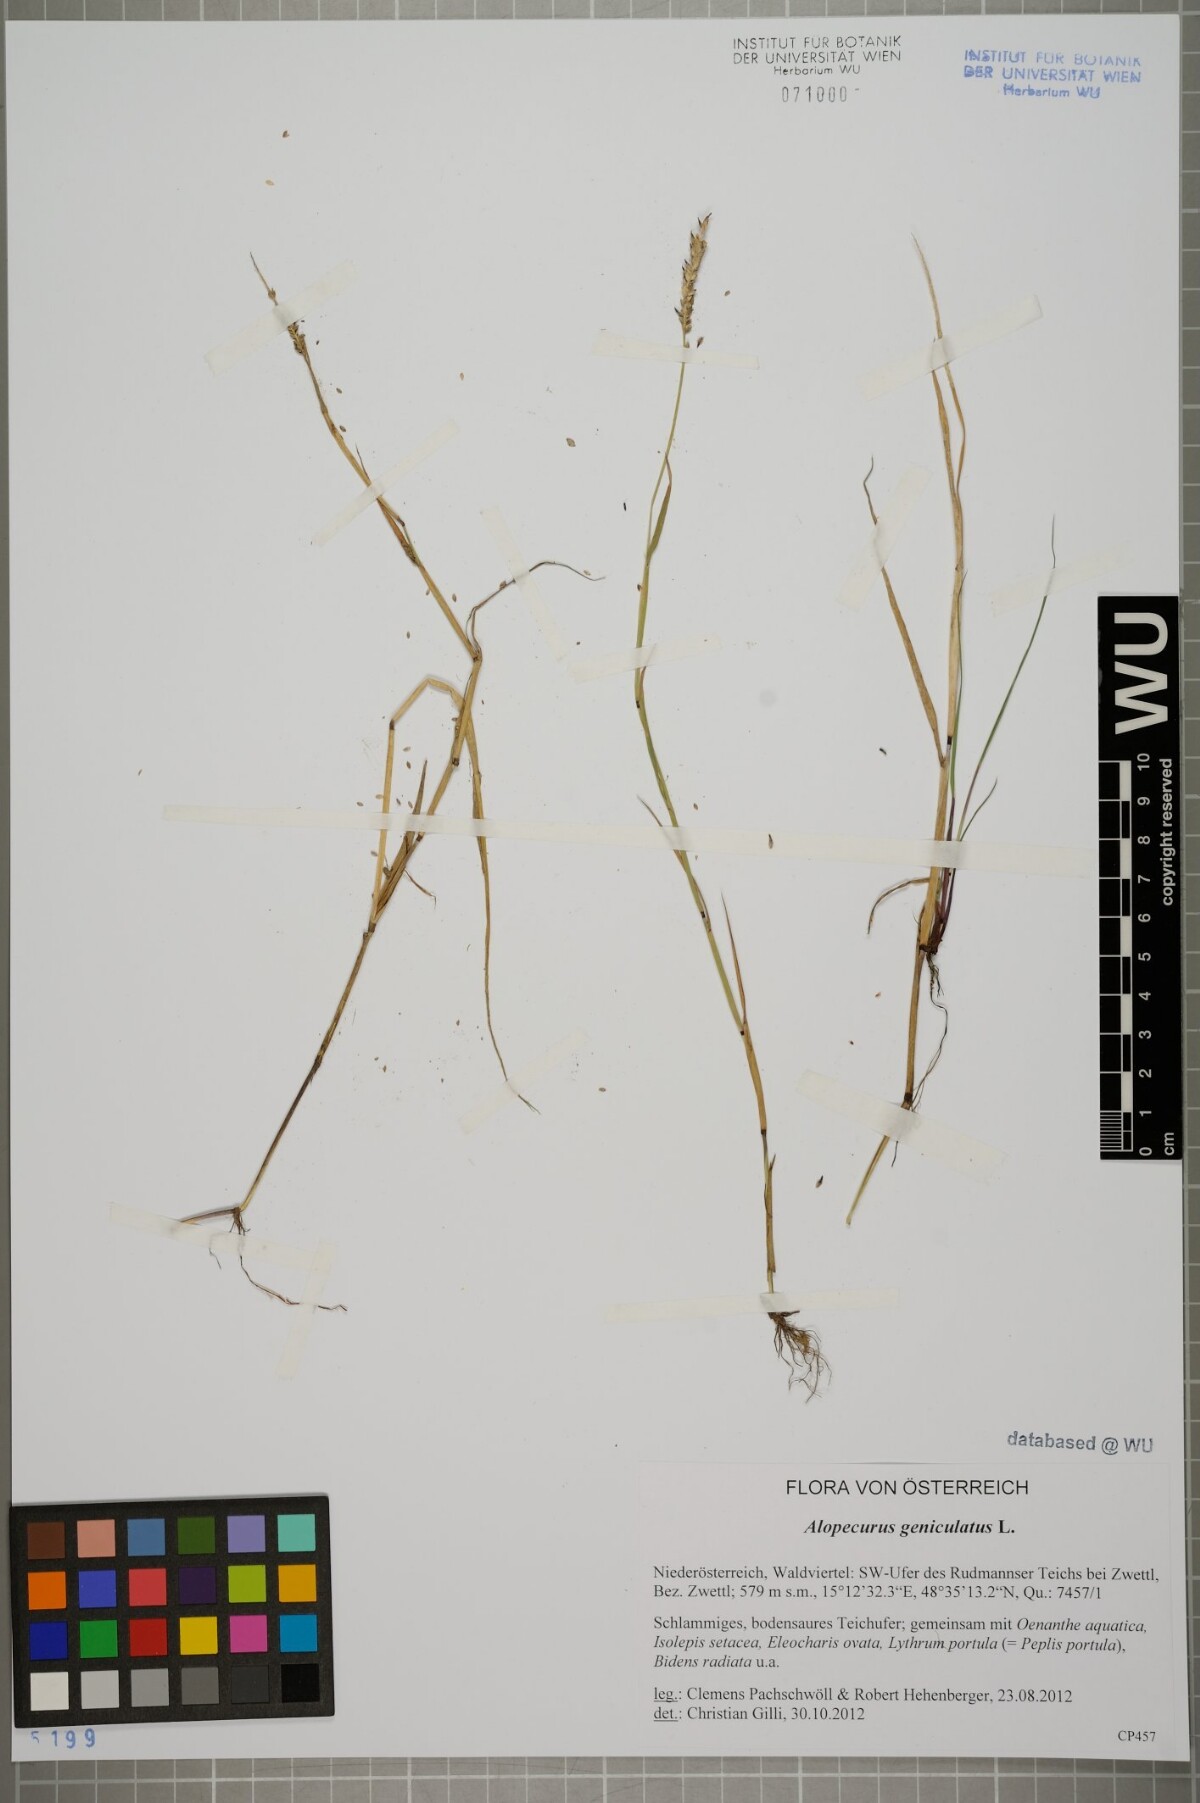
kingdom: Plantae
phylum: Tracheophyta
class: Liliopsida
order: Poales
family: Poaceae
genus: Alopecurus
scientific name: Alopecurus geniculatus
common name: Water foxtail
